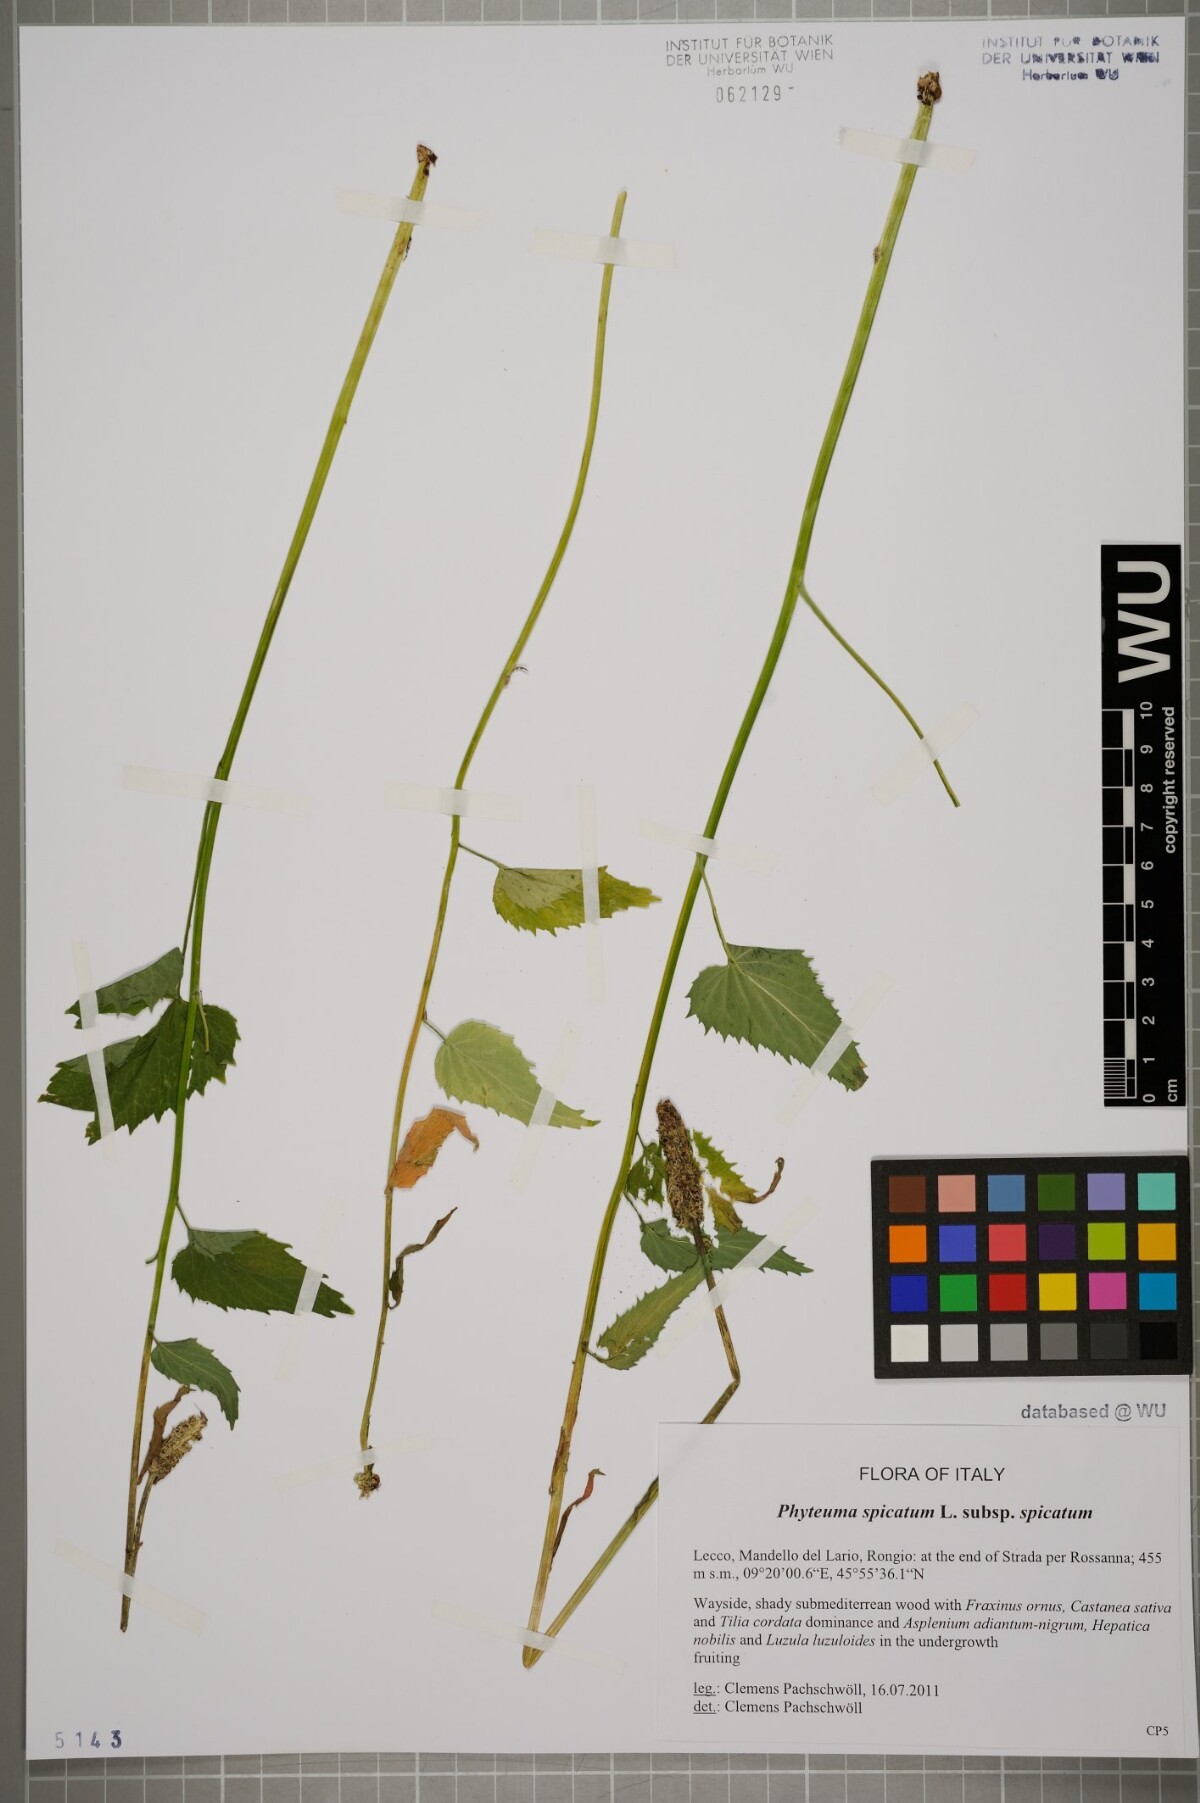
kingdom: Plantae
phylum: Tracheophyta
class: Magnoliopsida
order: Asterales
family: Campanulaceae
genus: Phyteuma
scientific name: Phyteuma spicatum
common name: Spiked rampion
